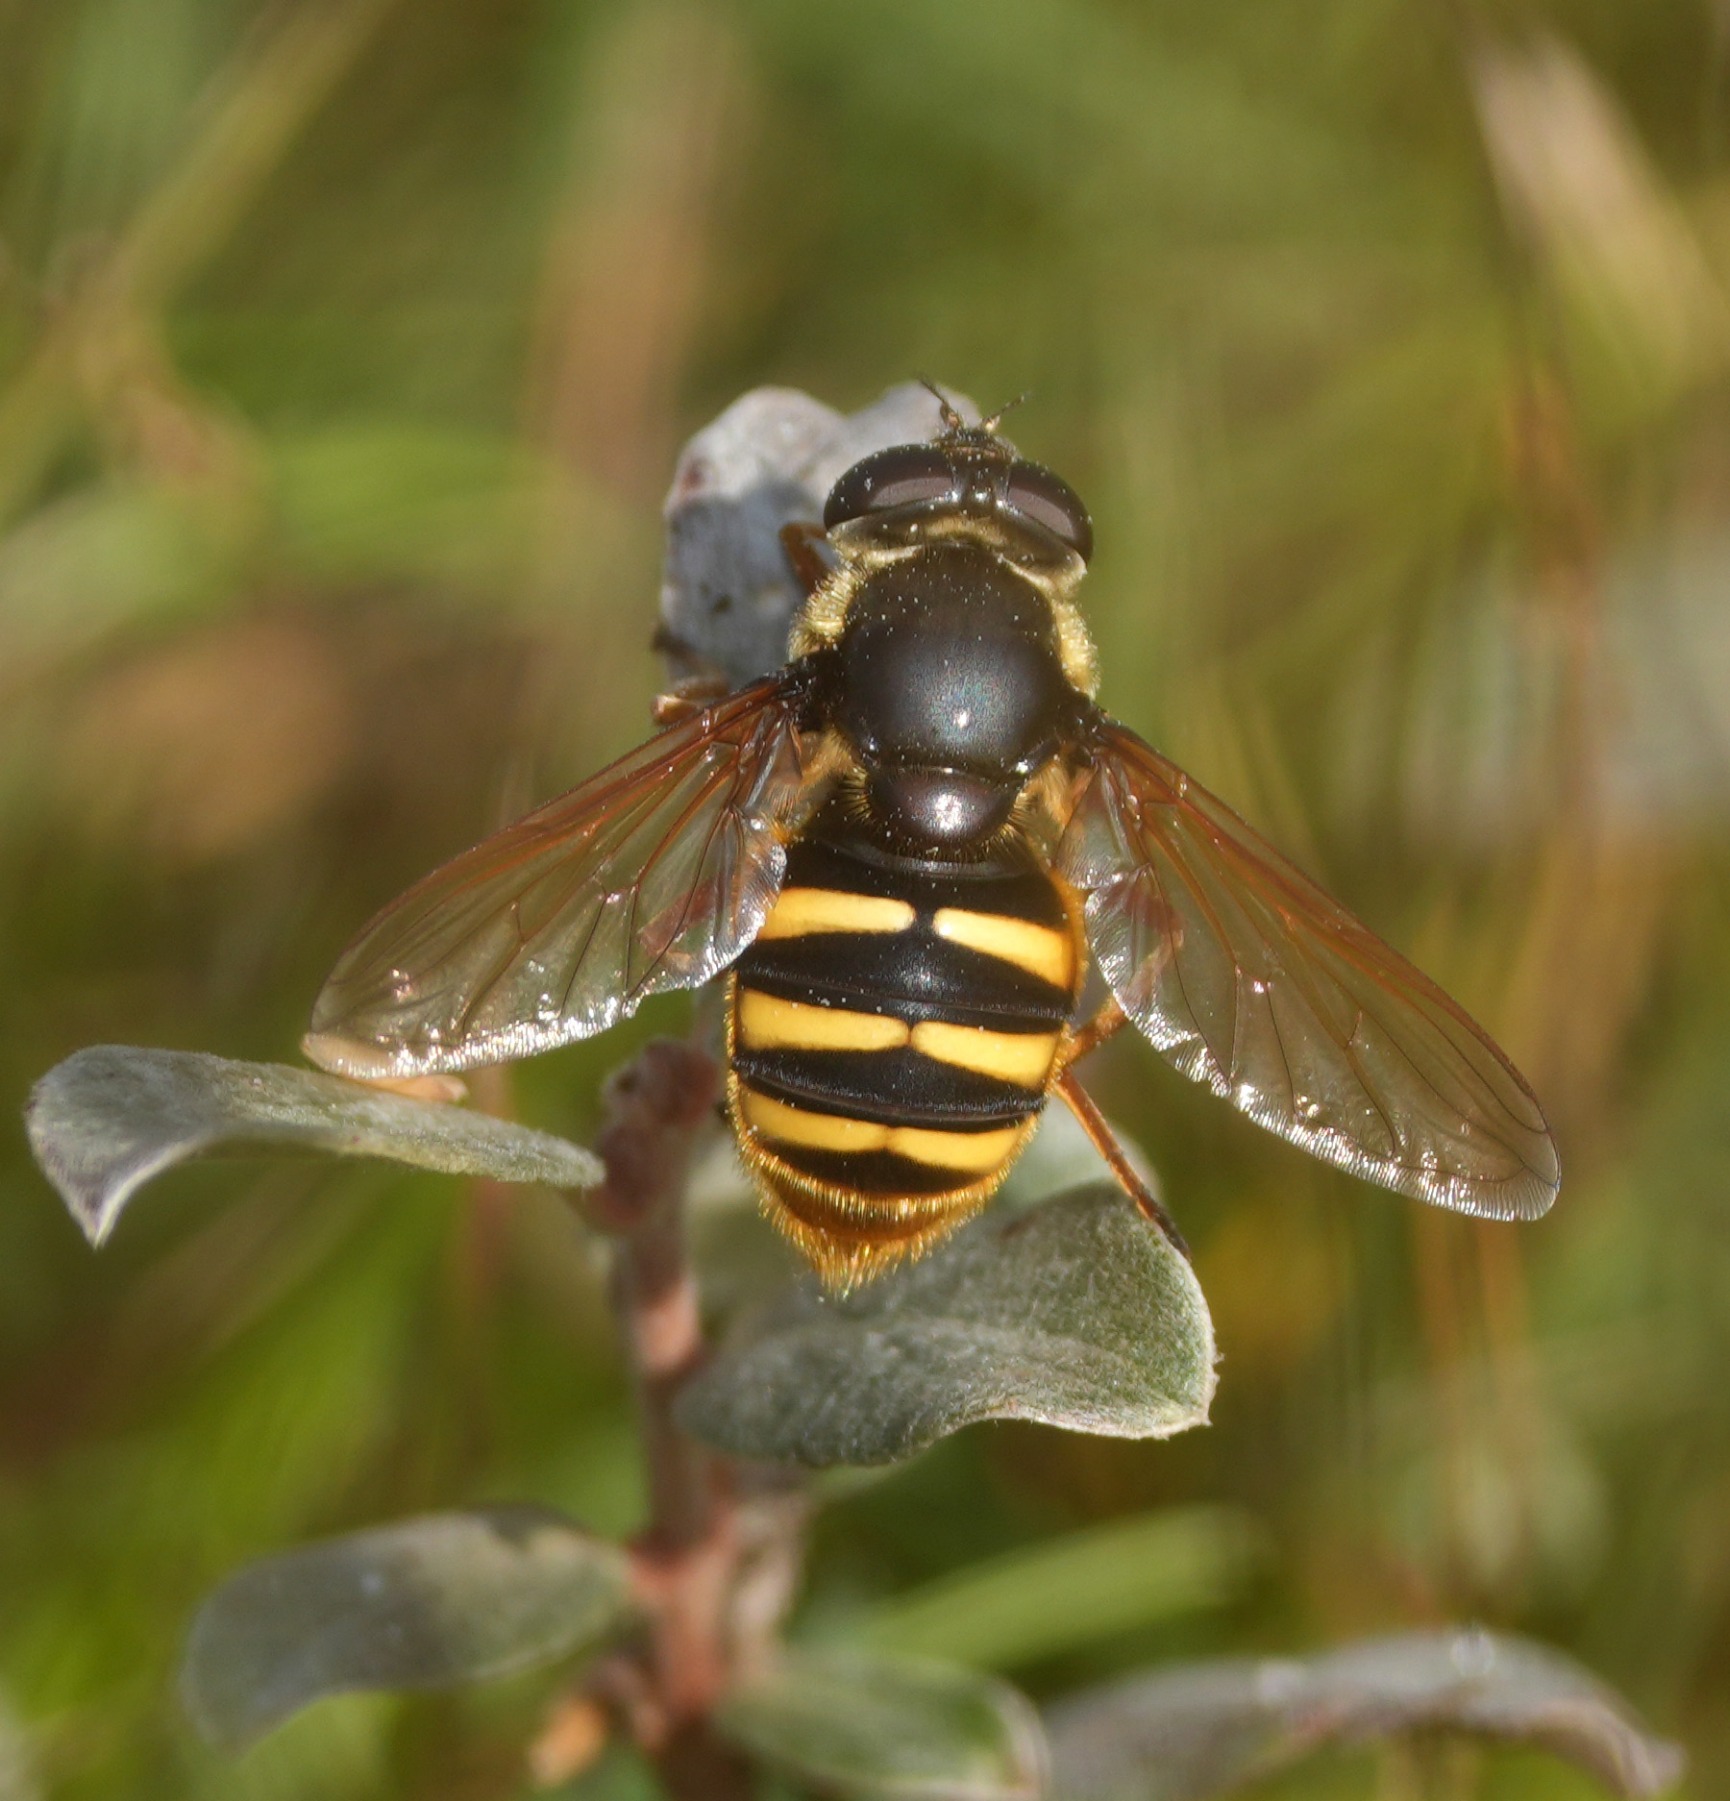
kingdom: Animalia
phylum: Arthropoda
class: Insecta
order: Diptera
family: Syrphidae
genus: Sericomyia
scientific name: Sericomyia silentis
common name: Tørve-silkesvirreflue
